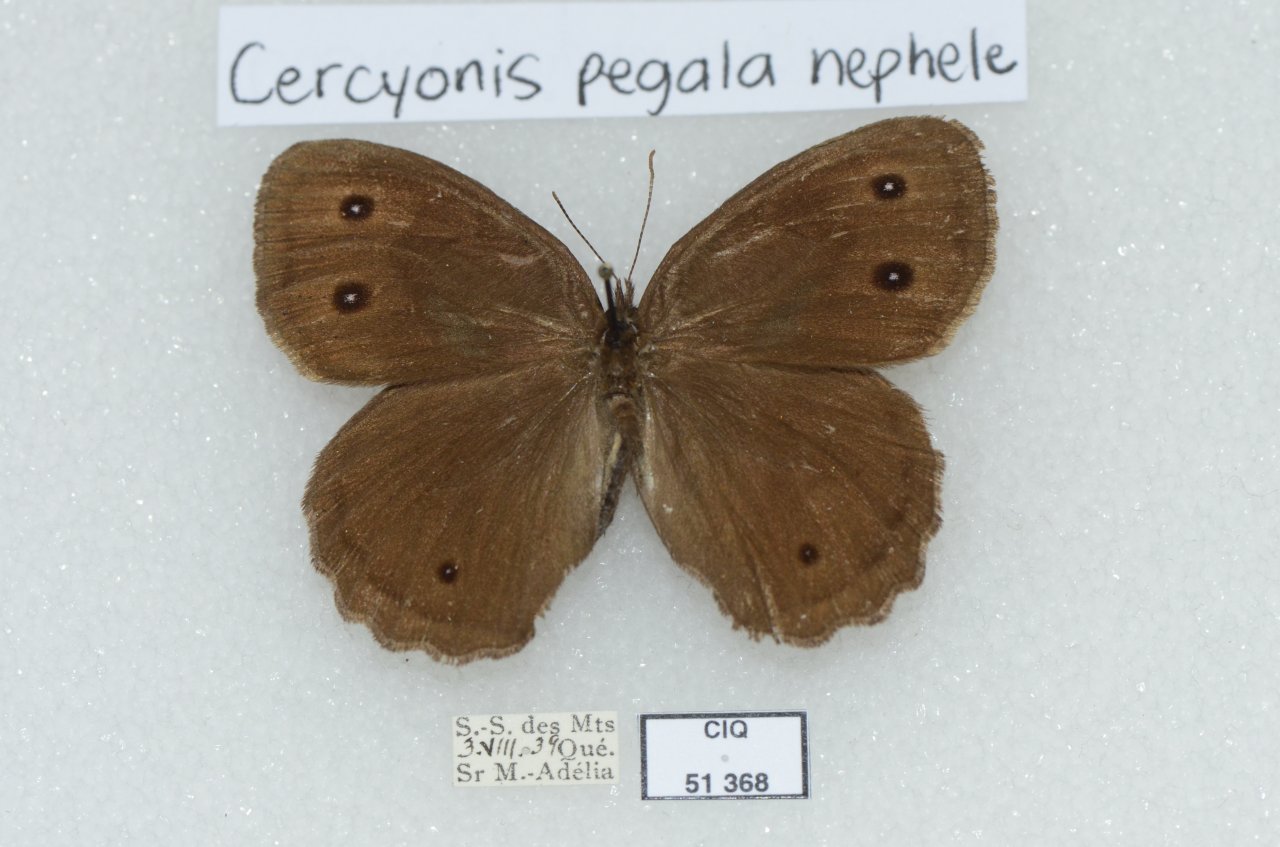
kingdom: Animalia
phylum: Arthropoda
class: Insecta
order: Lepidoptera
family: Nymphalidae
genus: Cercyonis
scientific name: Cercyonis pegala
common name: Common Wood-Nymph
